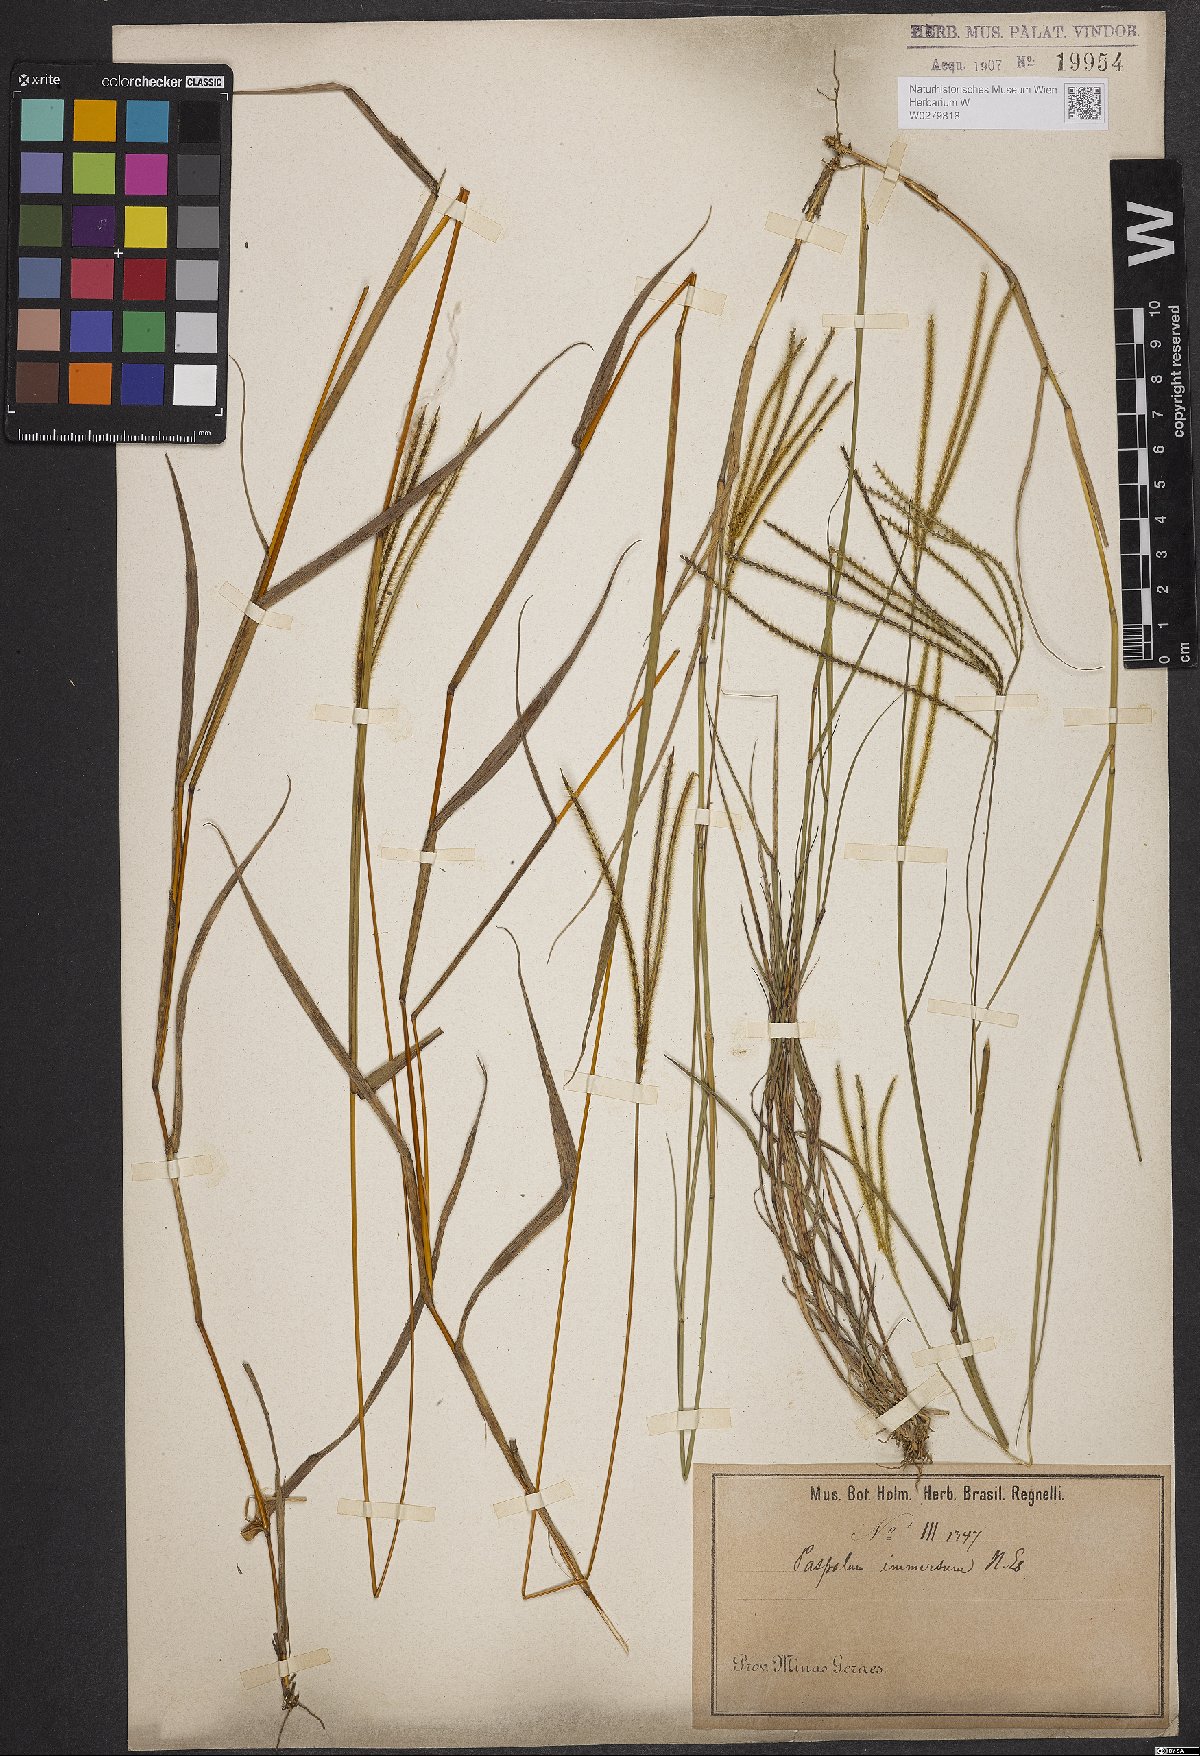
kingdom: Plantae
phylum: Tracheophyta
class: Liliopsida
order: Poales
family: Poaceae
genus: Axonopus
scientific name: Axonopus aureus
